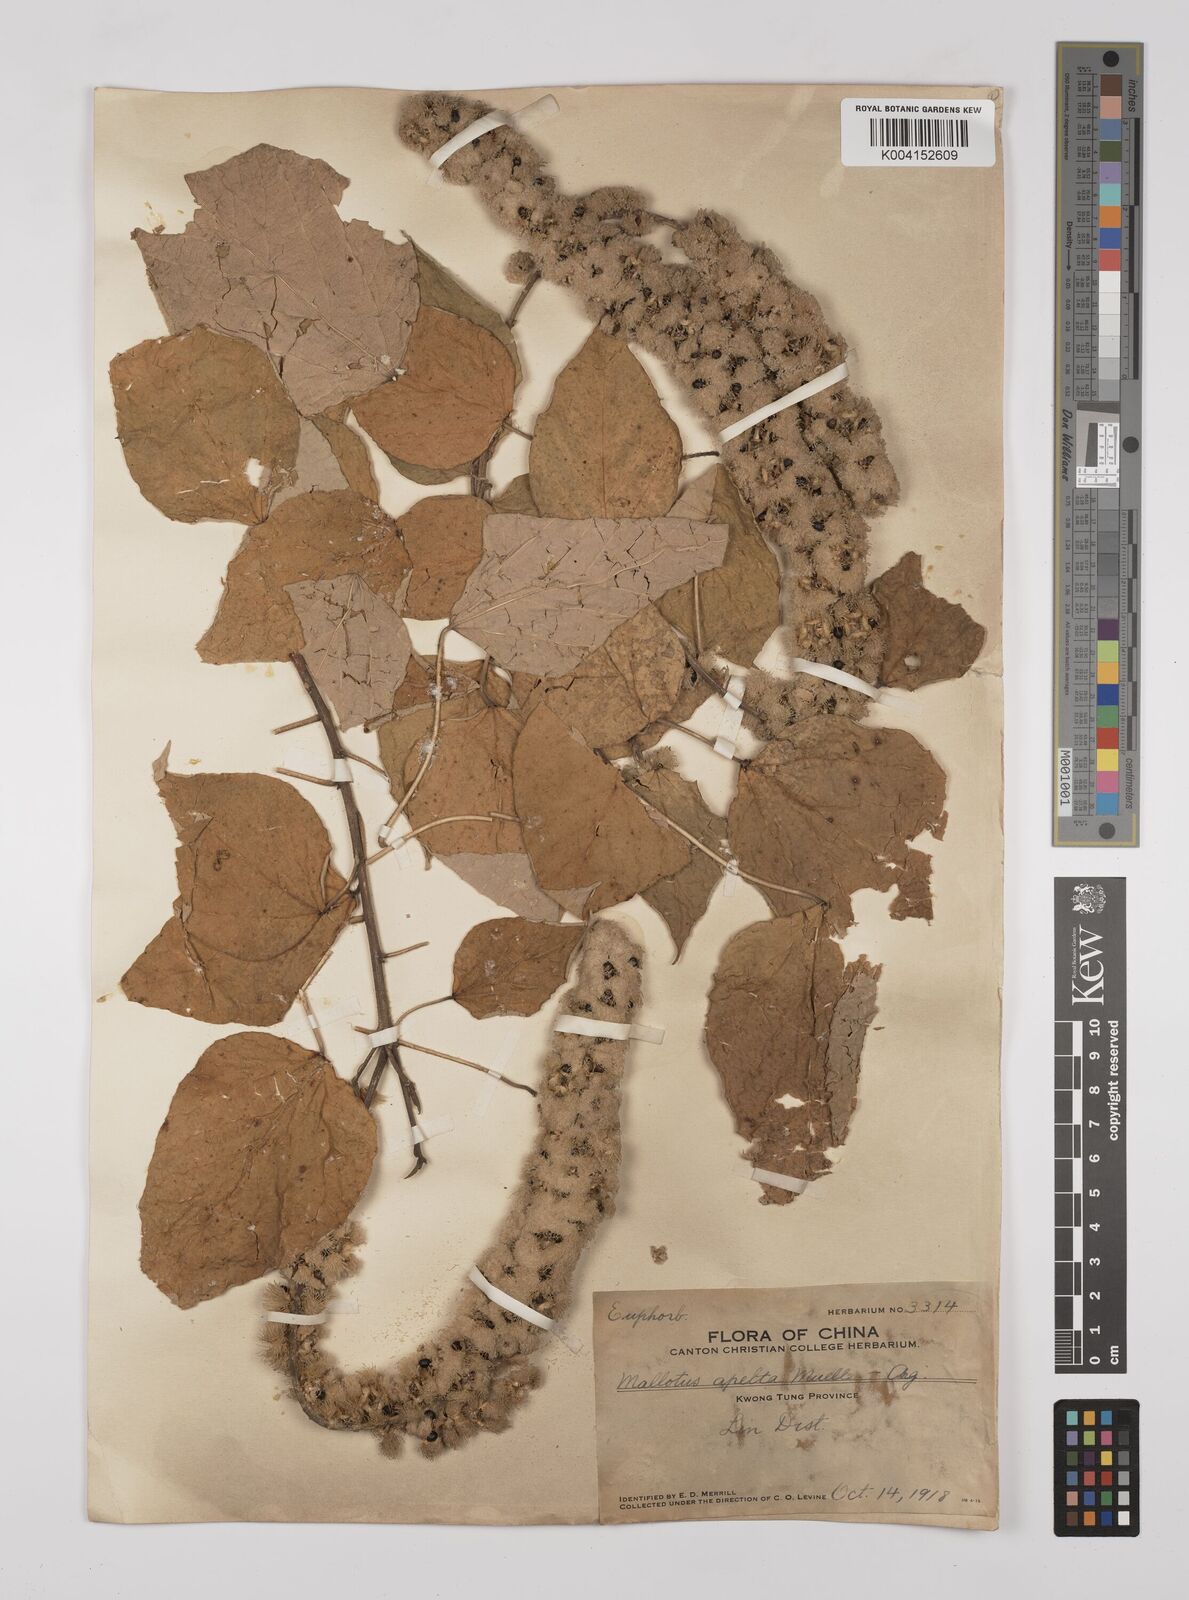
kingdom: Plantae
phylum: Tracheophyta
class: Magnoliopsida
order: Malpighiales
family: Euphorbiaceae
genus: Mallotus
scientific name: Mallotus apelta
